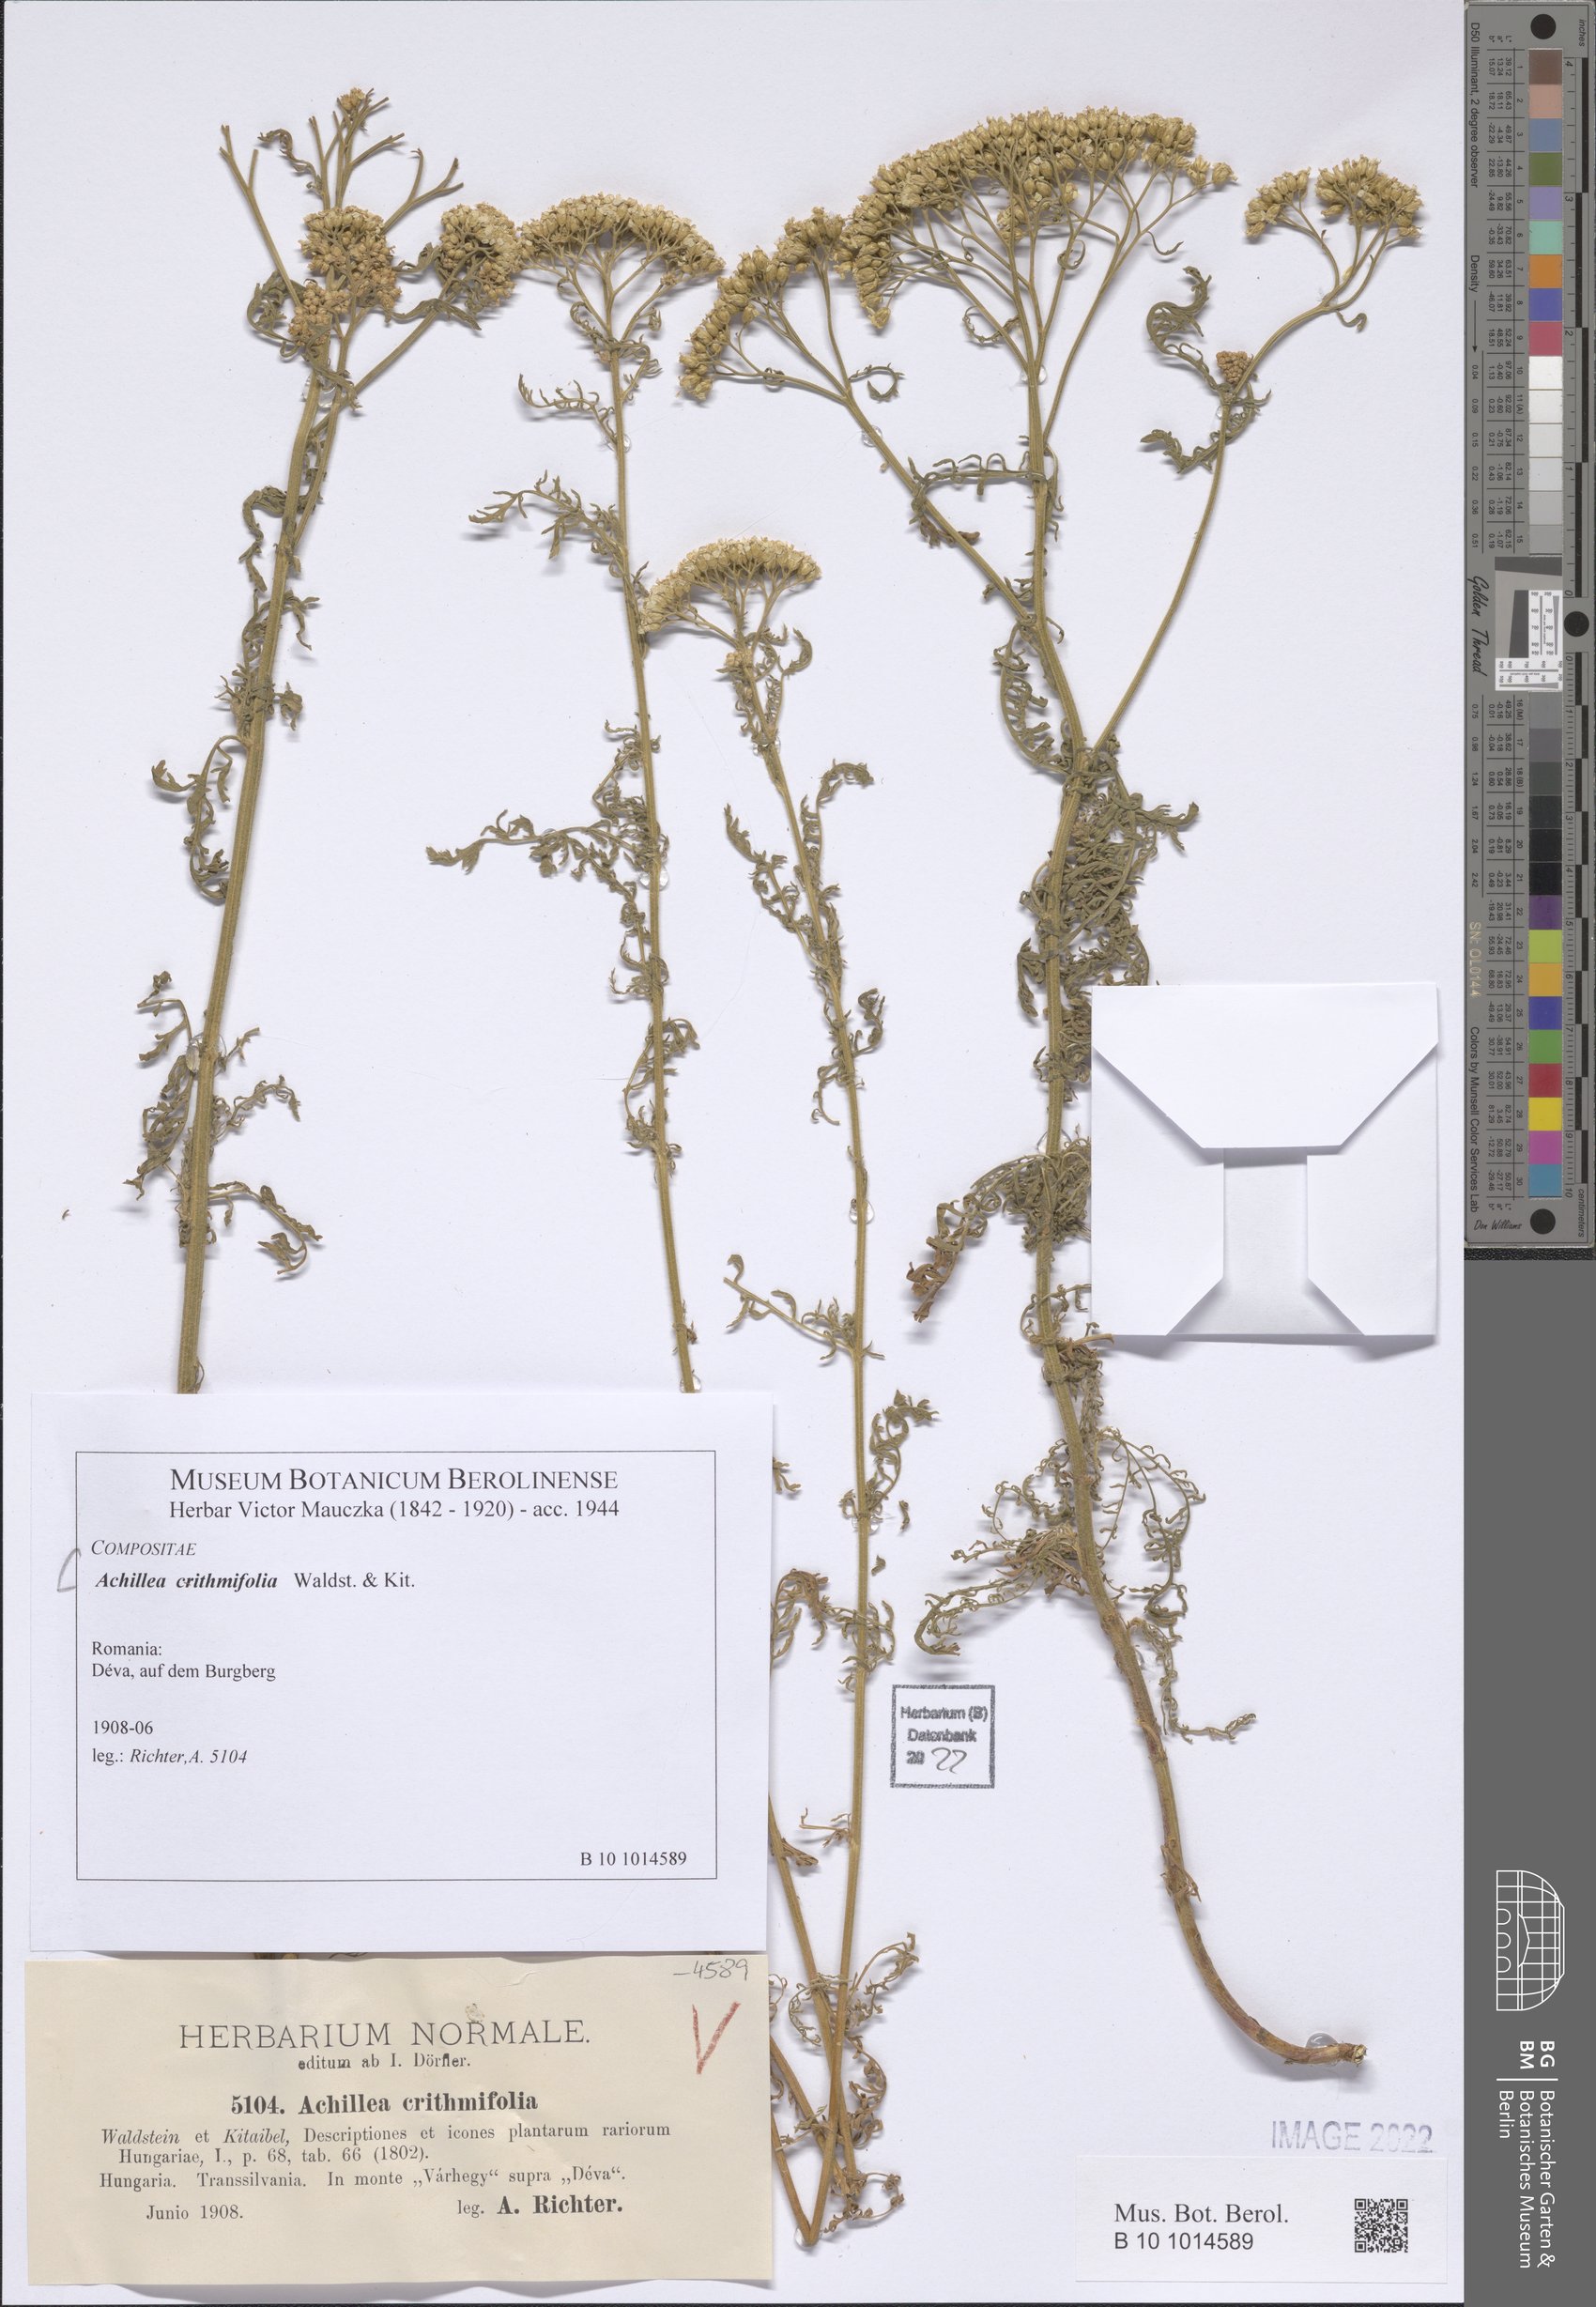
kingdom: Plantae
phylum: Tracheophyta
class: Magnoliopsida
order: Asterales
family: Asteraceae
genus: Achillea
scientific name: Achillea crithmifolia
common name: Yarrow
